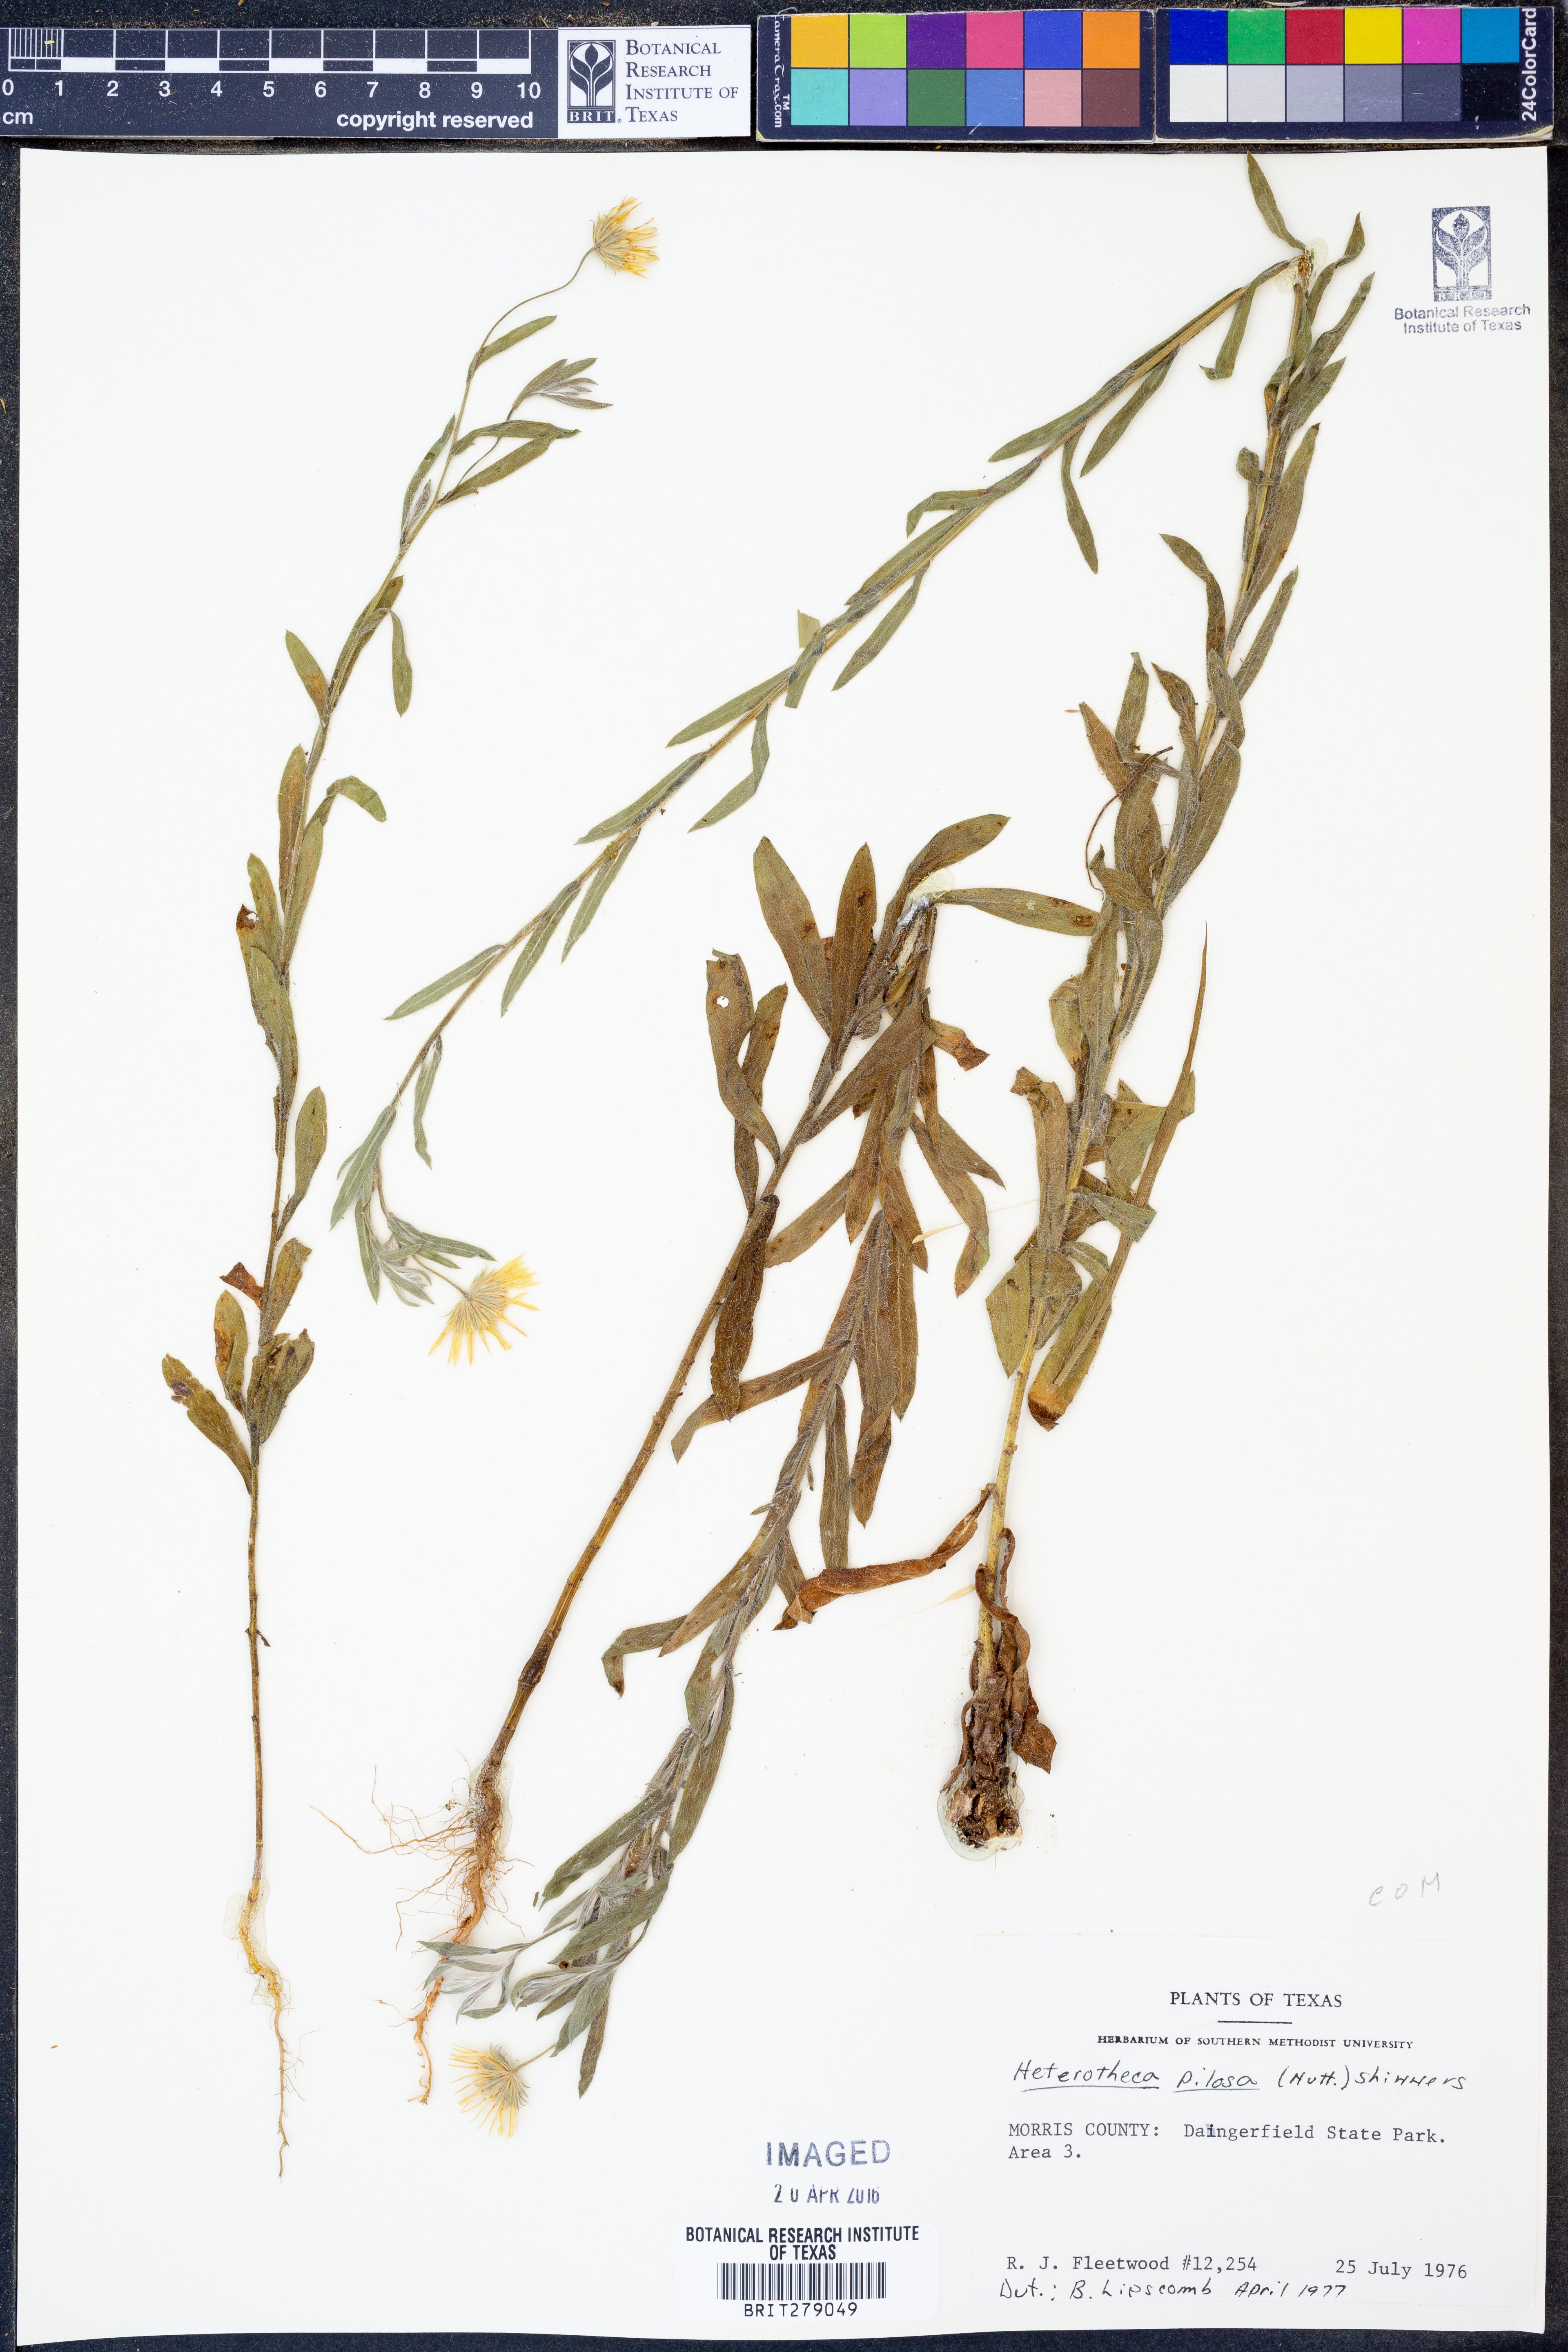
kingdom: Plantae
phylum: Tracheophyta
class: Magnoliopsida
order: Asterales
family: Asteraceae
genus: Bradburia
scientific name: Bradburia pilosa
